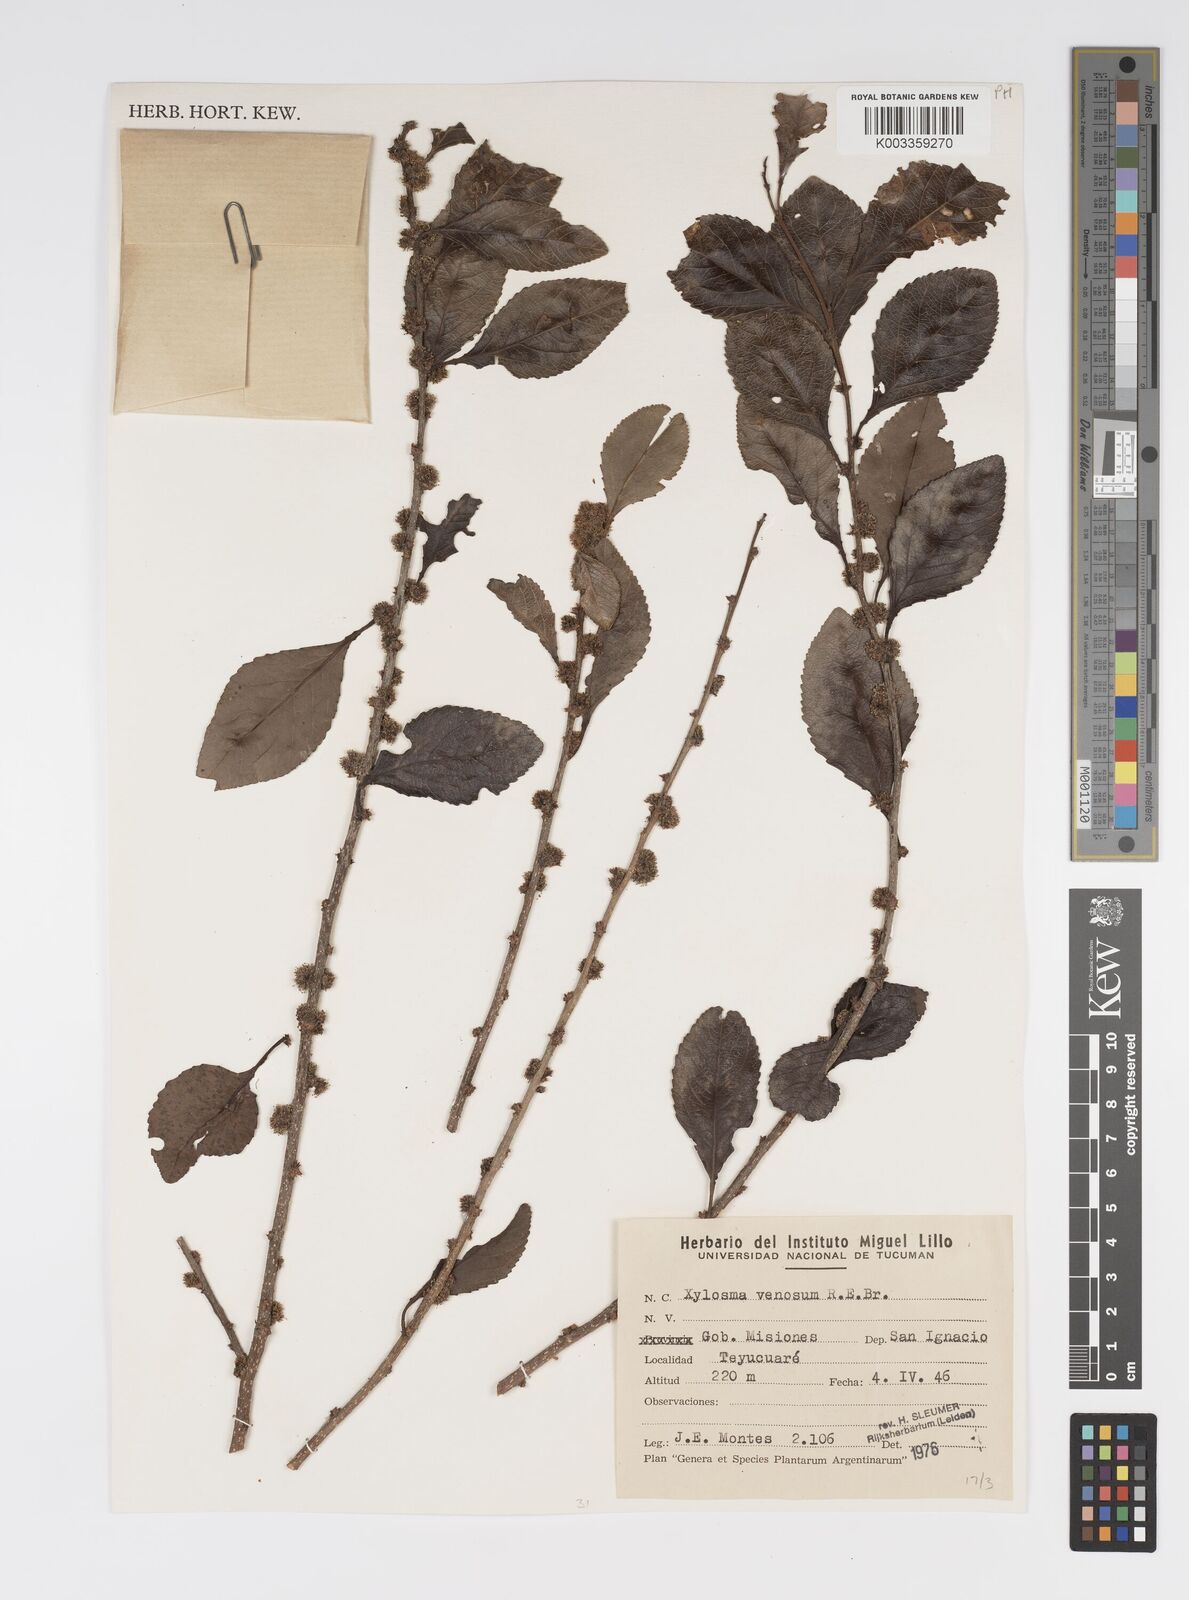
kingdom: Plantae
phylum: Tracheophyta
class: Magnoliopsida
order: Malpighiales
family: Salicaceae
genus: Xylosma
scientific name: Xylosma venosa
